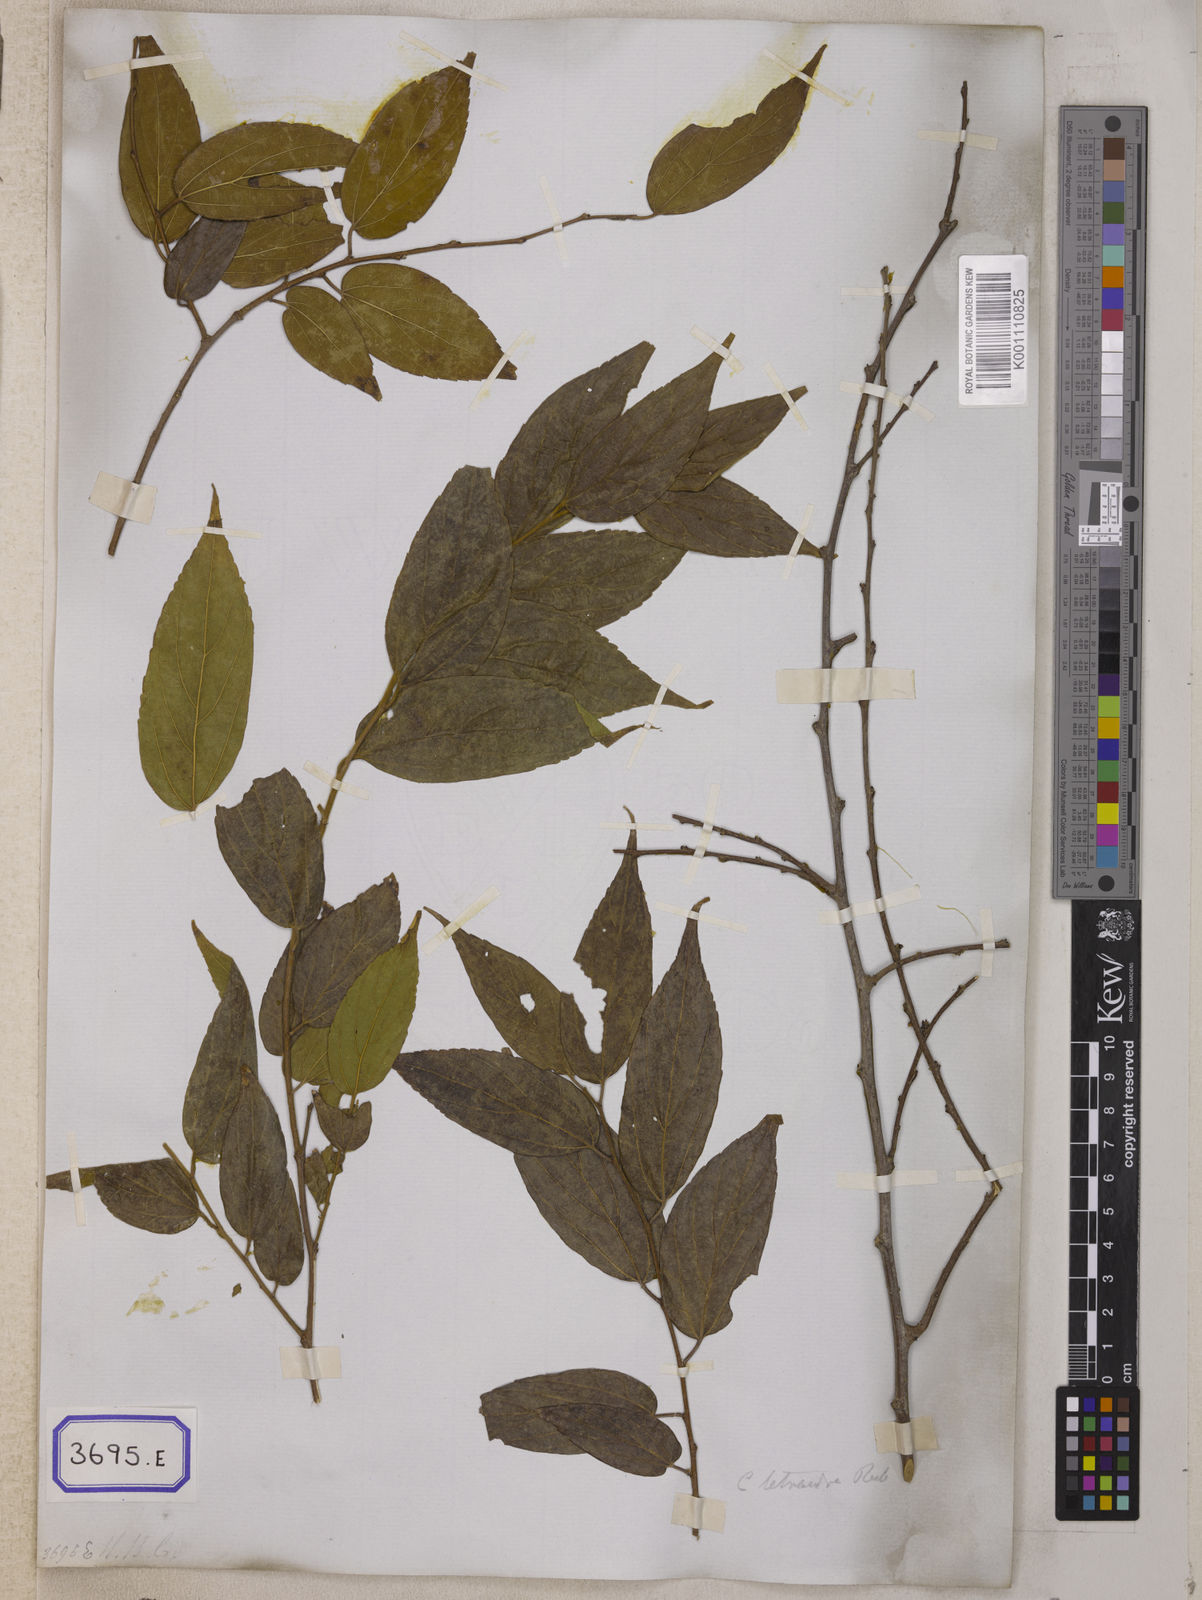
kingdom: Plantae
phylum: Tracheophyta
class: Magnoliopsida
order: Rosales
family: Cannabaceae
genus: Celtis
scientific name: Celtis
